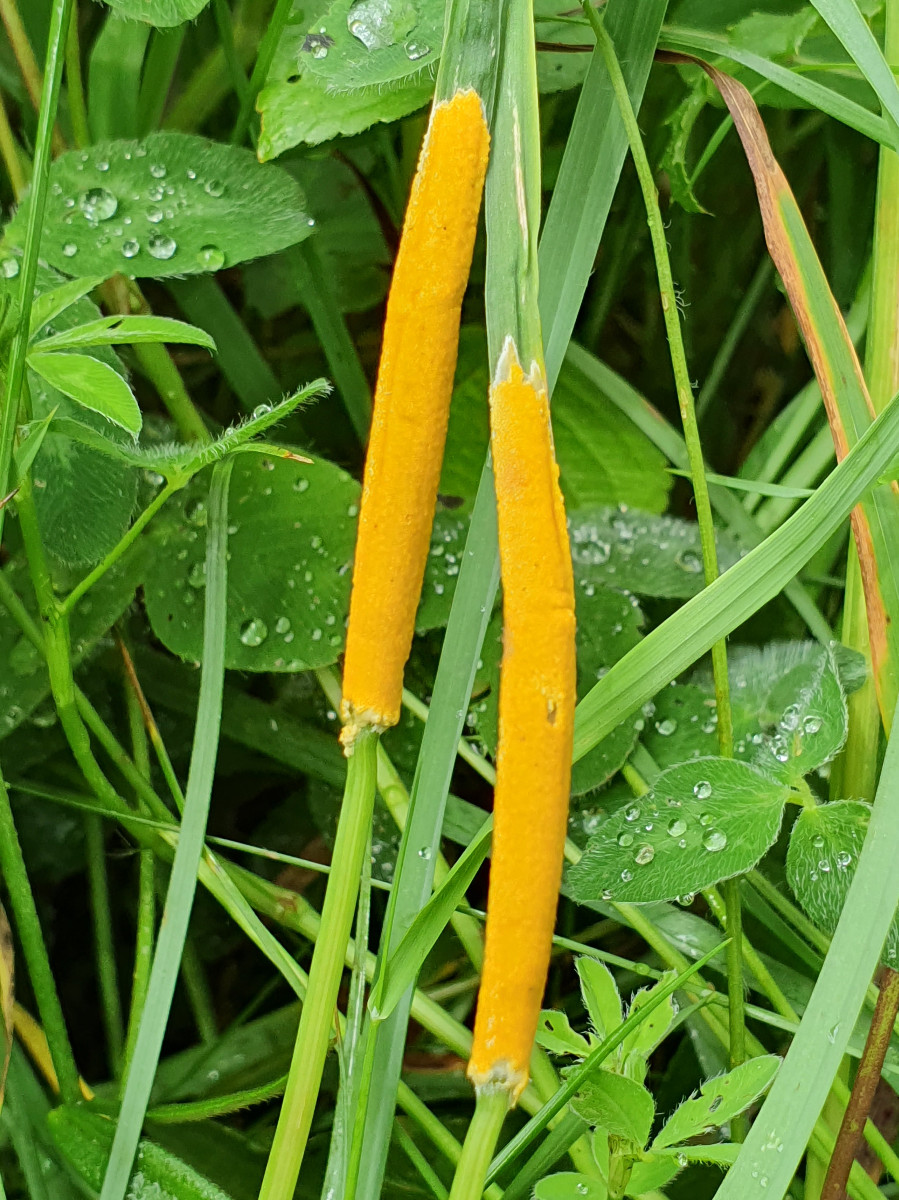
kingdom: Fungi
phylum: Ascomycota
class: Sordariomycetes
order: Hypocreales
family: Clavicipitaceae
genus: Epichloe
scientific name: Epichloe typhina
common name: almindelig kernerør
